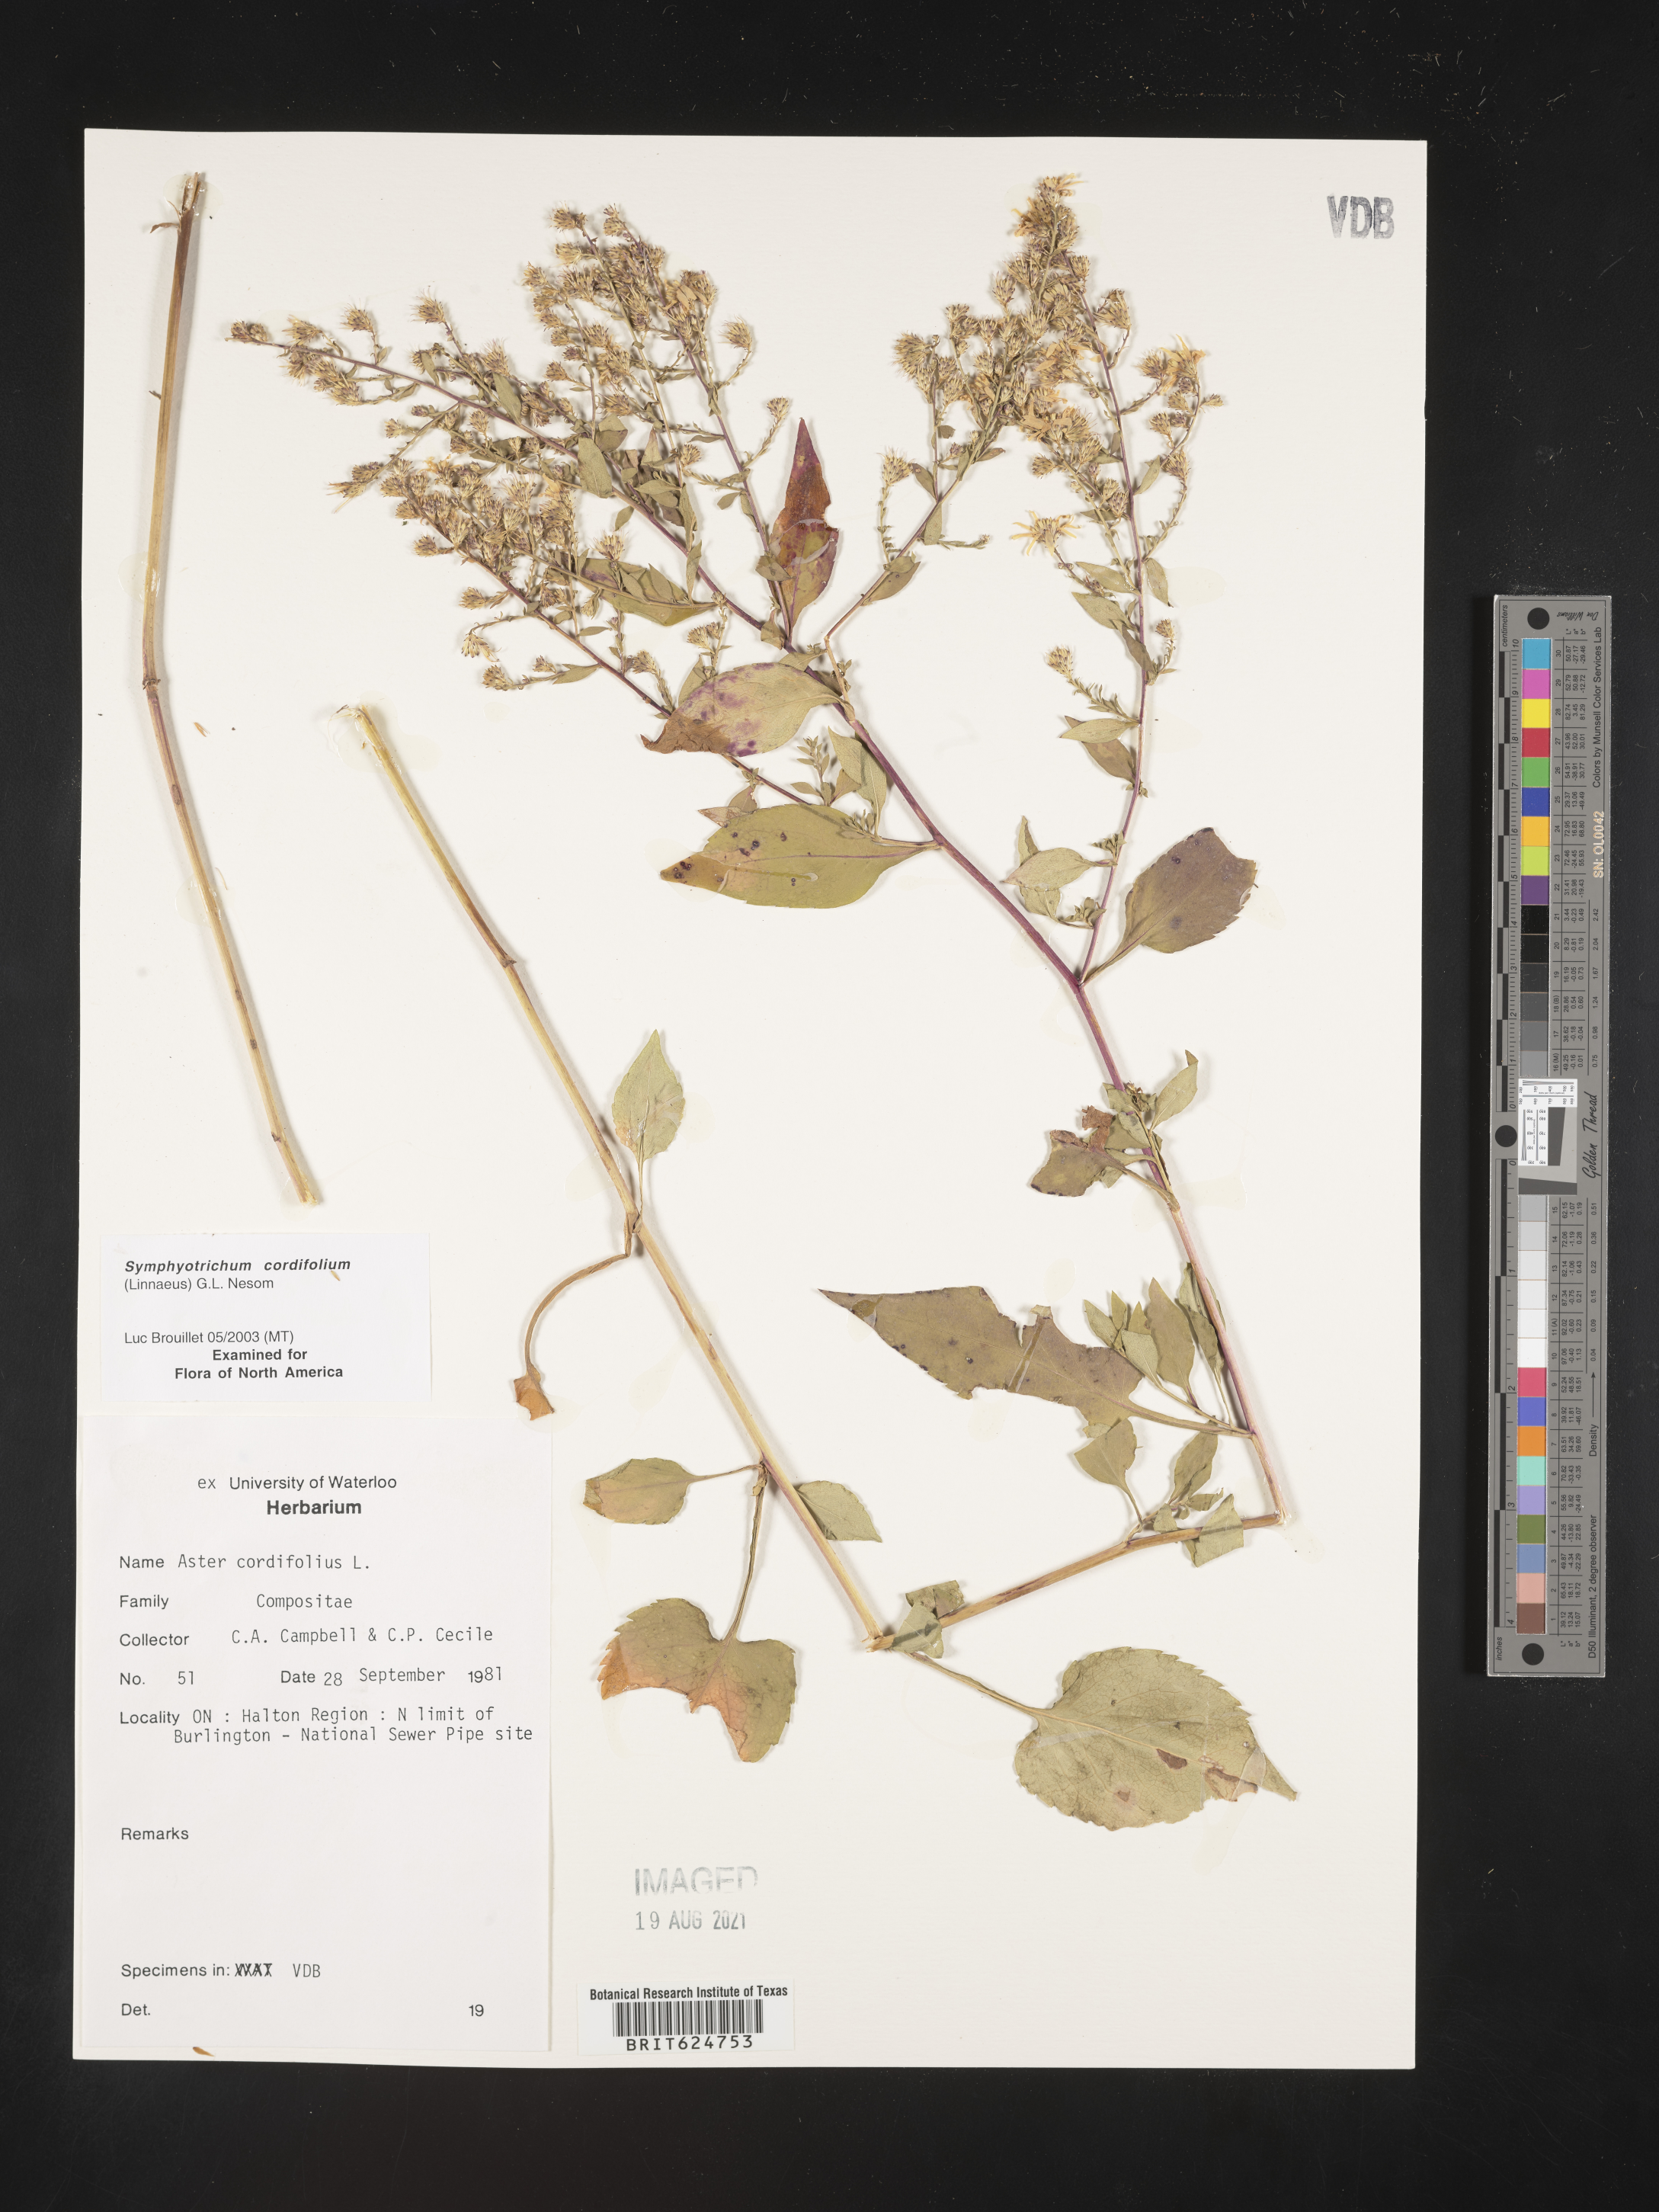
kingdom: Plantae
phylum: Tracheophyta
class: Magnoliopsida
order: Asterales
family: Asteraceae
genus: Symphyotrichum
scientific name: Symphyotrichum cordifolium
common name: Beeweed
